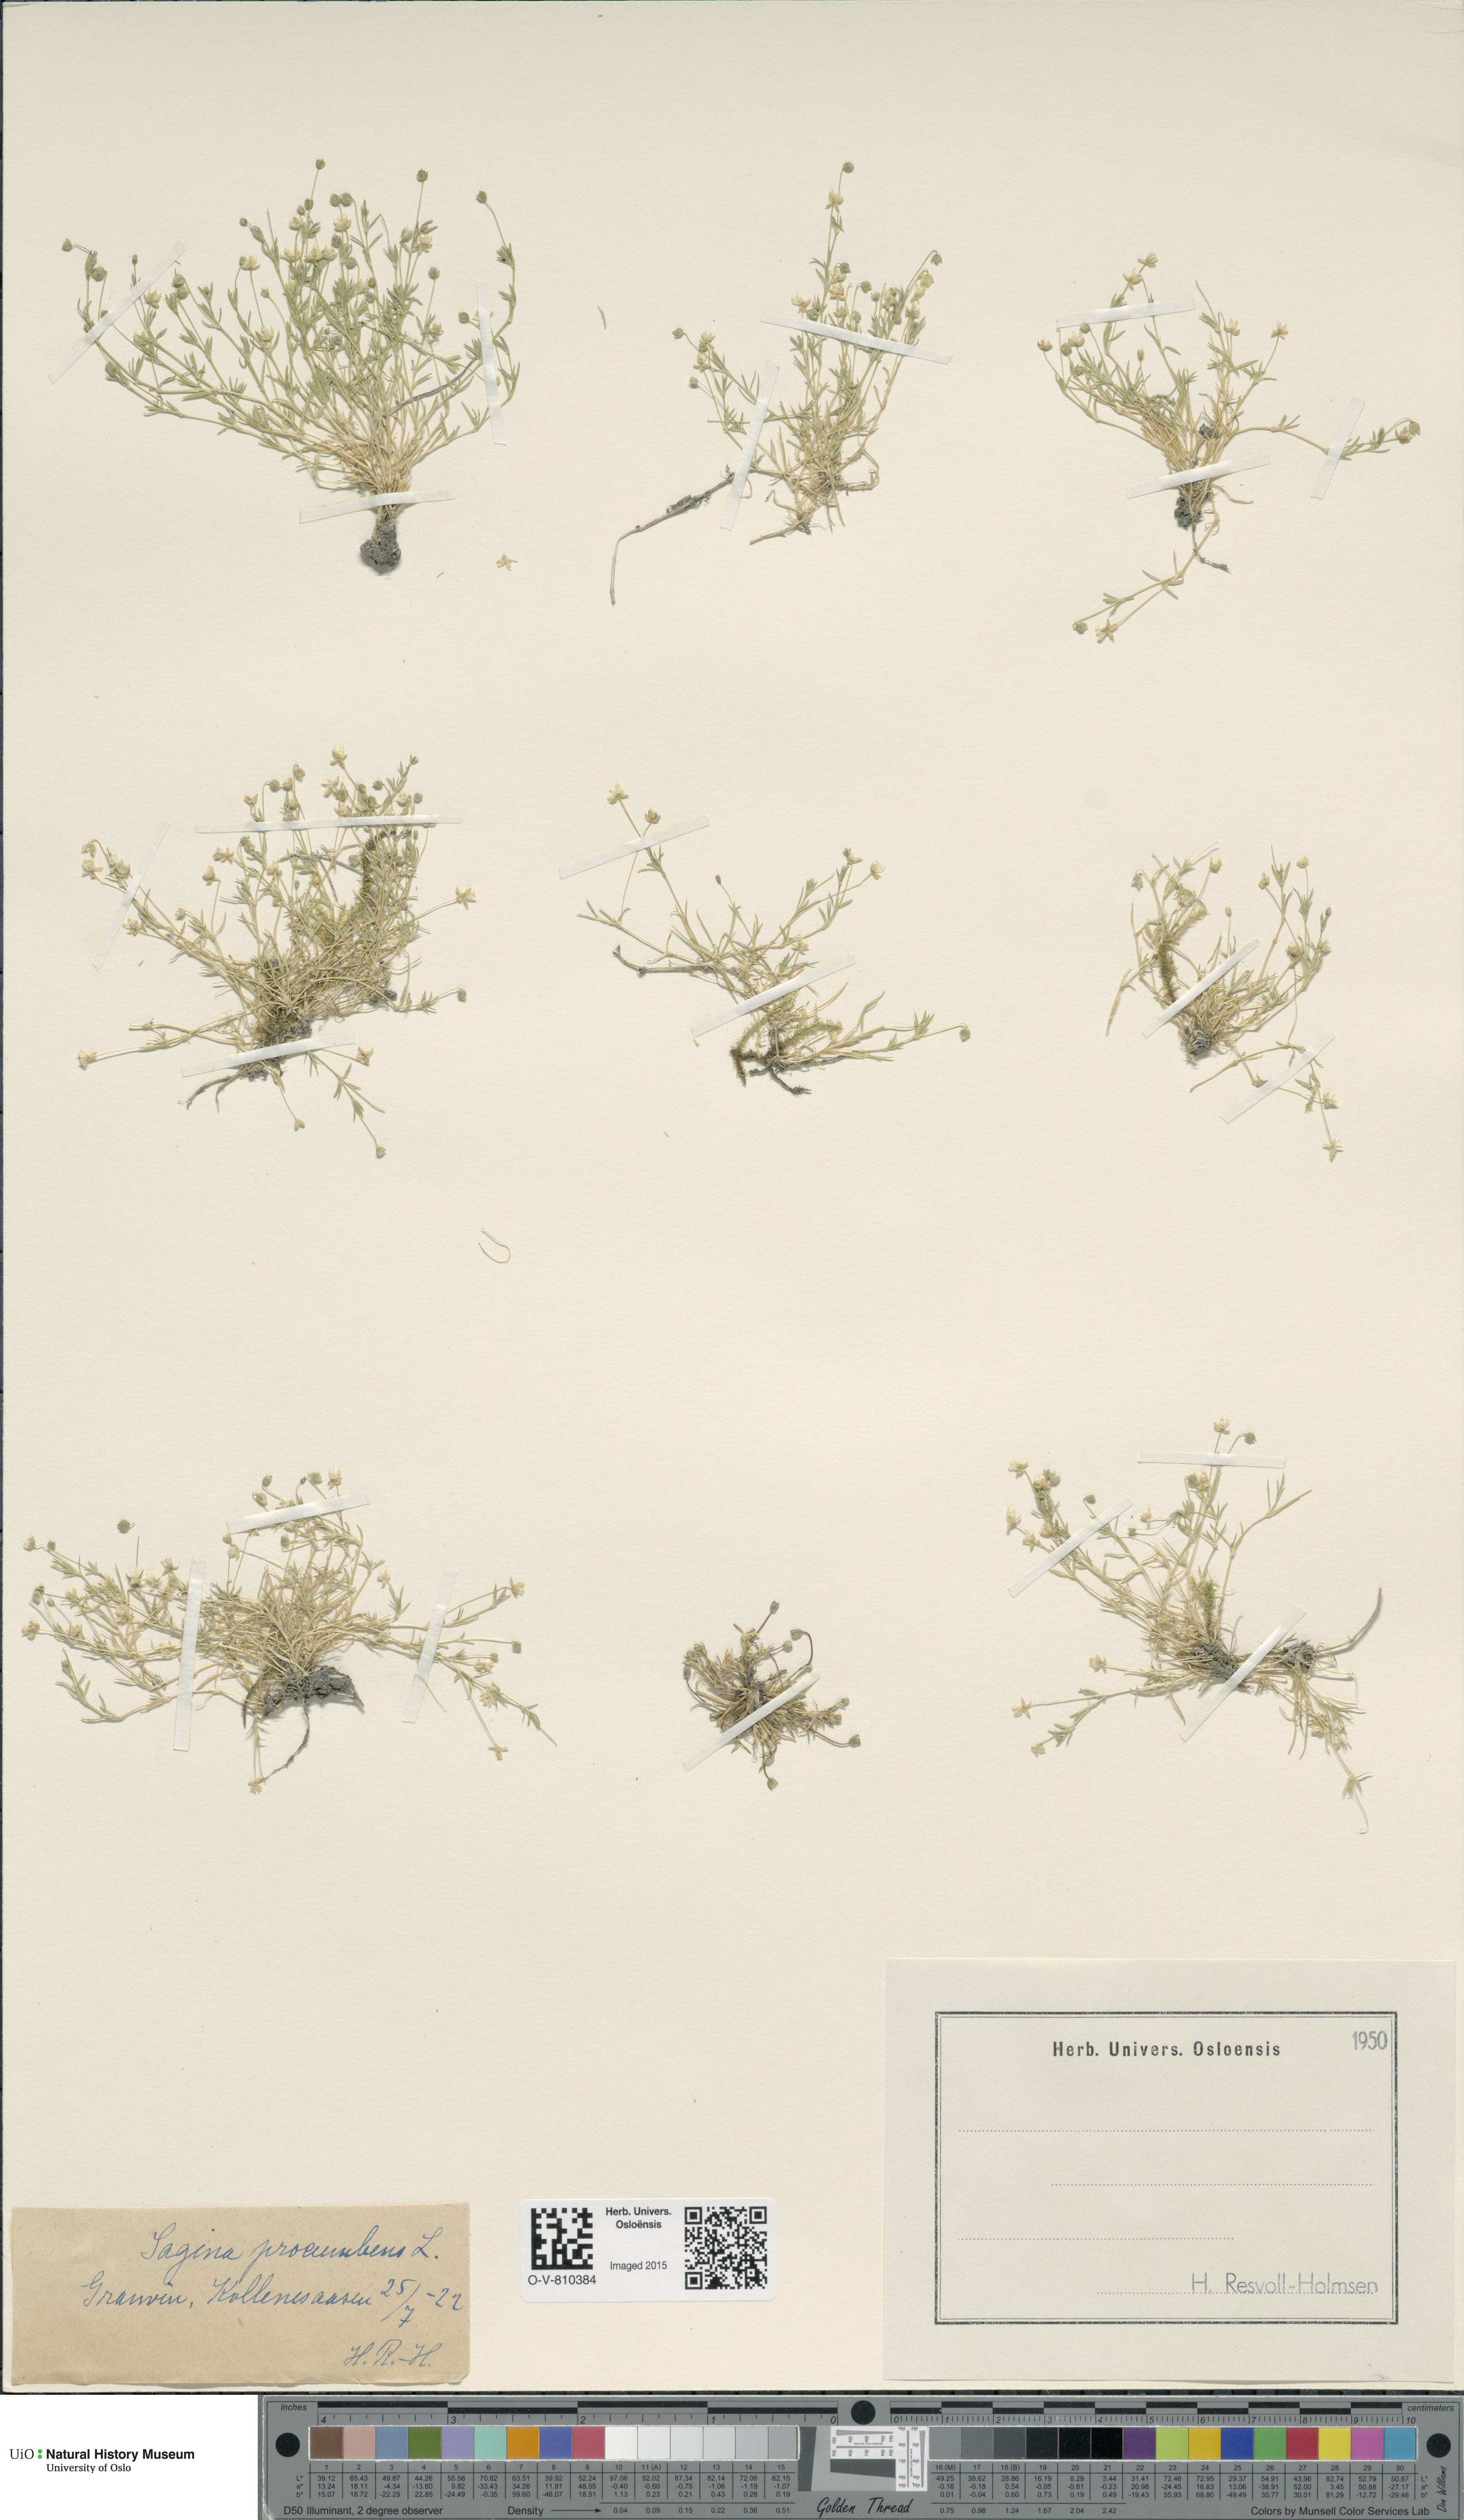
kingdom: Plantae
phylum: Tracheophyta
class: Magnoliopsida
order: Caryophyllales
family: Caryophyllaceae
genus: Sagina
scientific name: Sagina procumbens
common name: Procumbent pearlwort
